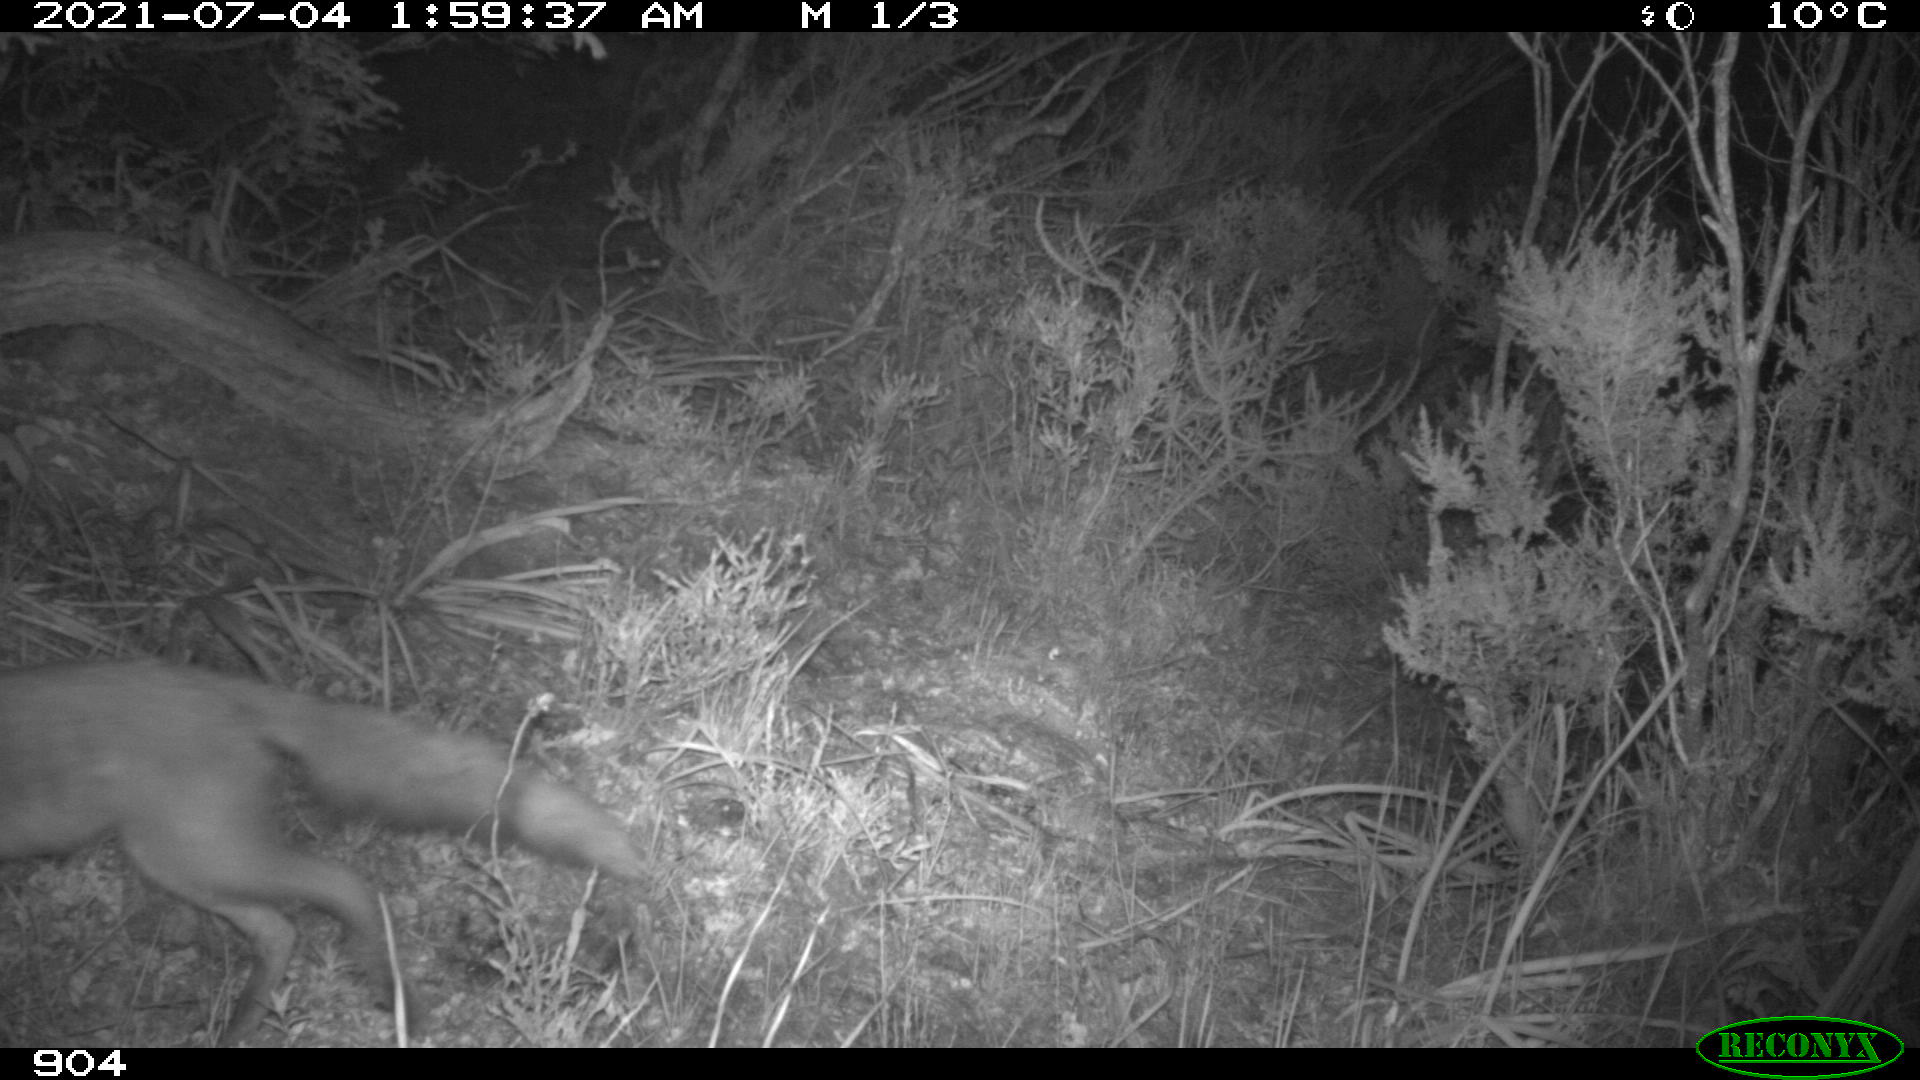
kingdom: Animalia
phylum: Chordata
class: Mammalia
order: Carnivora
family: Canidae
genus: Vulpes
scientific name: Vulpes vulpes
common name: Red fox
